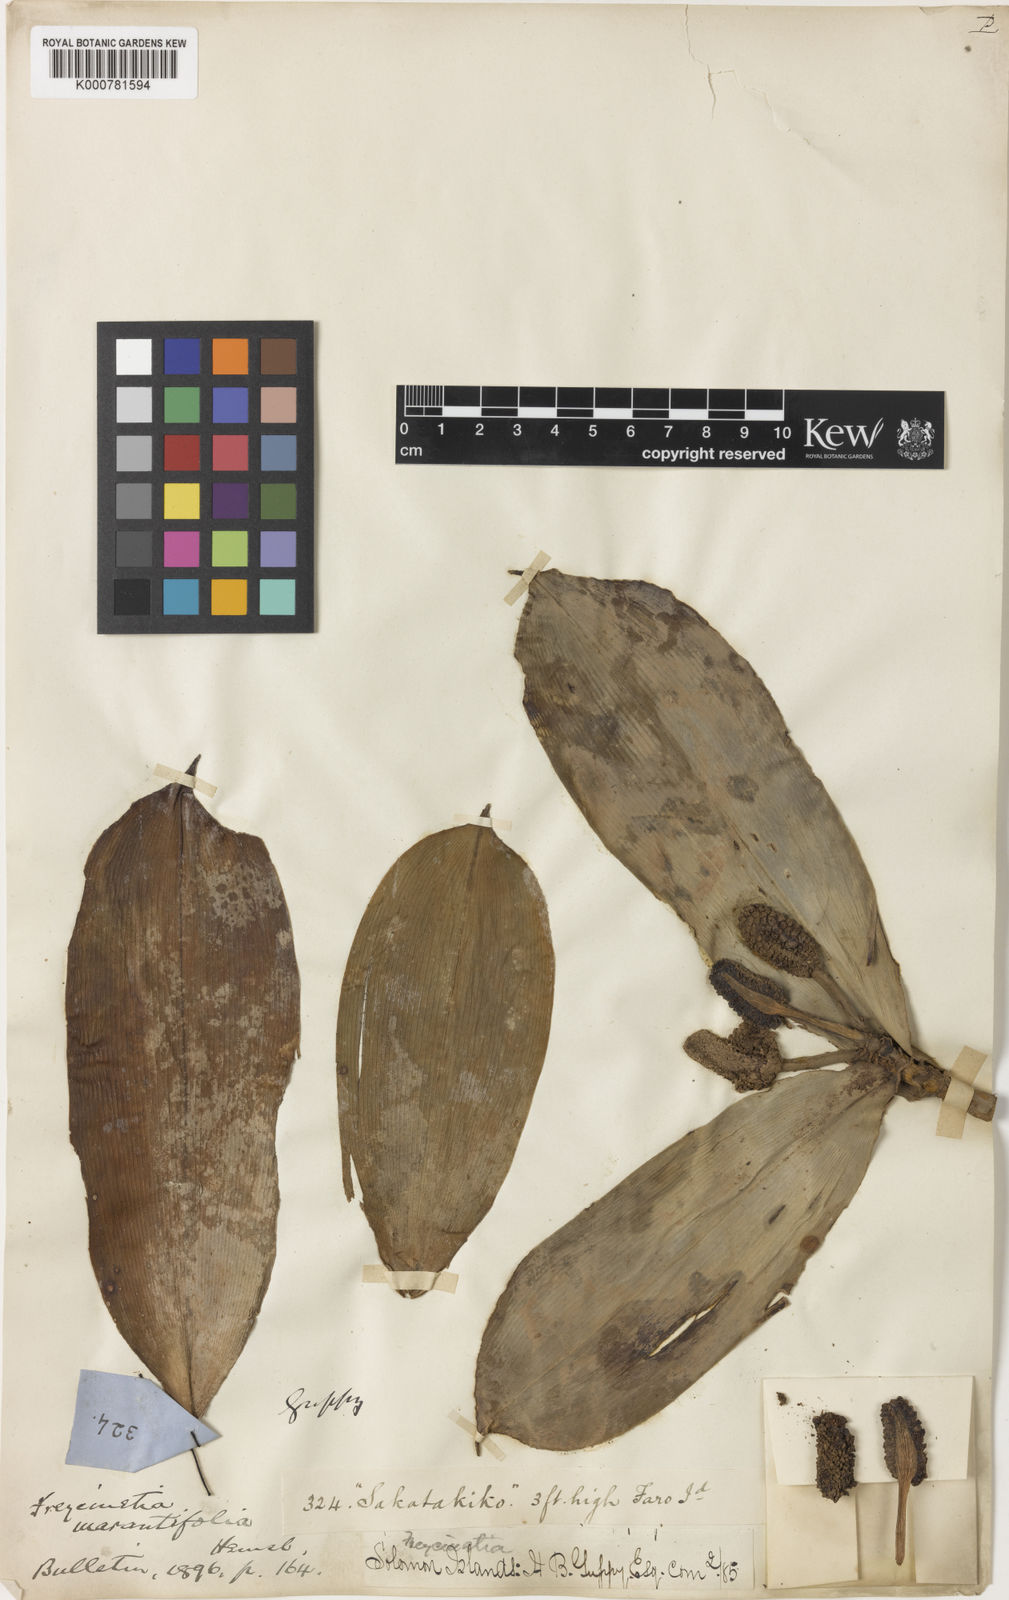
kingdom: Plantae
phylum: Tracheophyta
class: Liliopsida
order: Pandanales
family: Pandanaceae
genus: Freycinetia
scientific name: Freycinetia marantifolia
